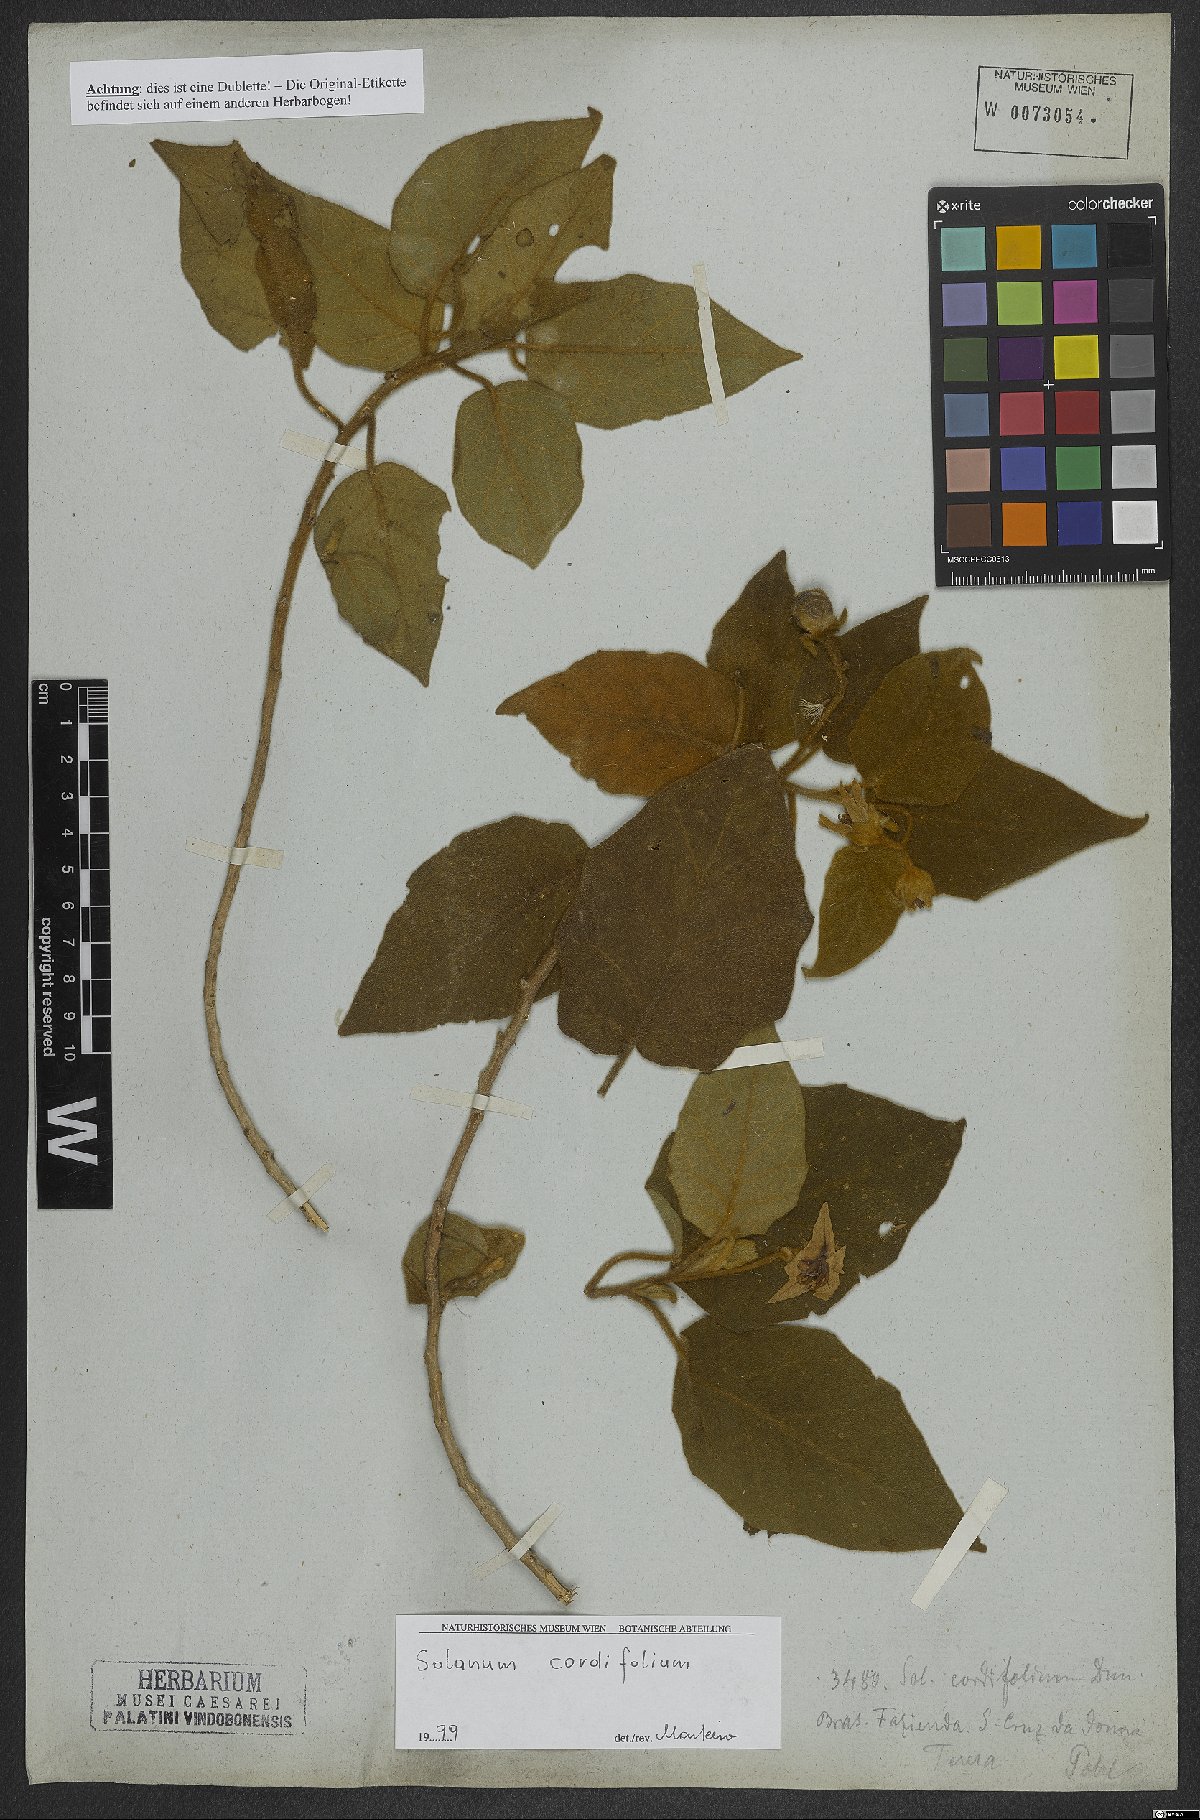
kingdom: Plantae
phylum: Tracheophyta
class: Magnoliopsida
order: Solanales
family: Solanaceae
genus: Solanum
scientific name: Solanum cordifolium
